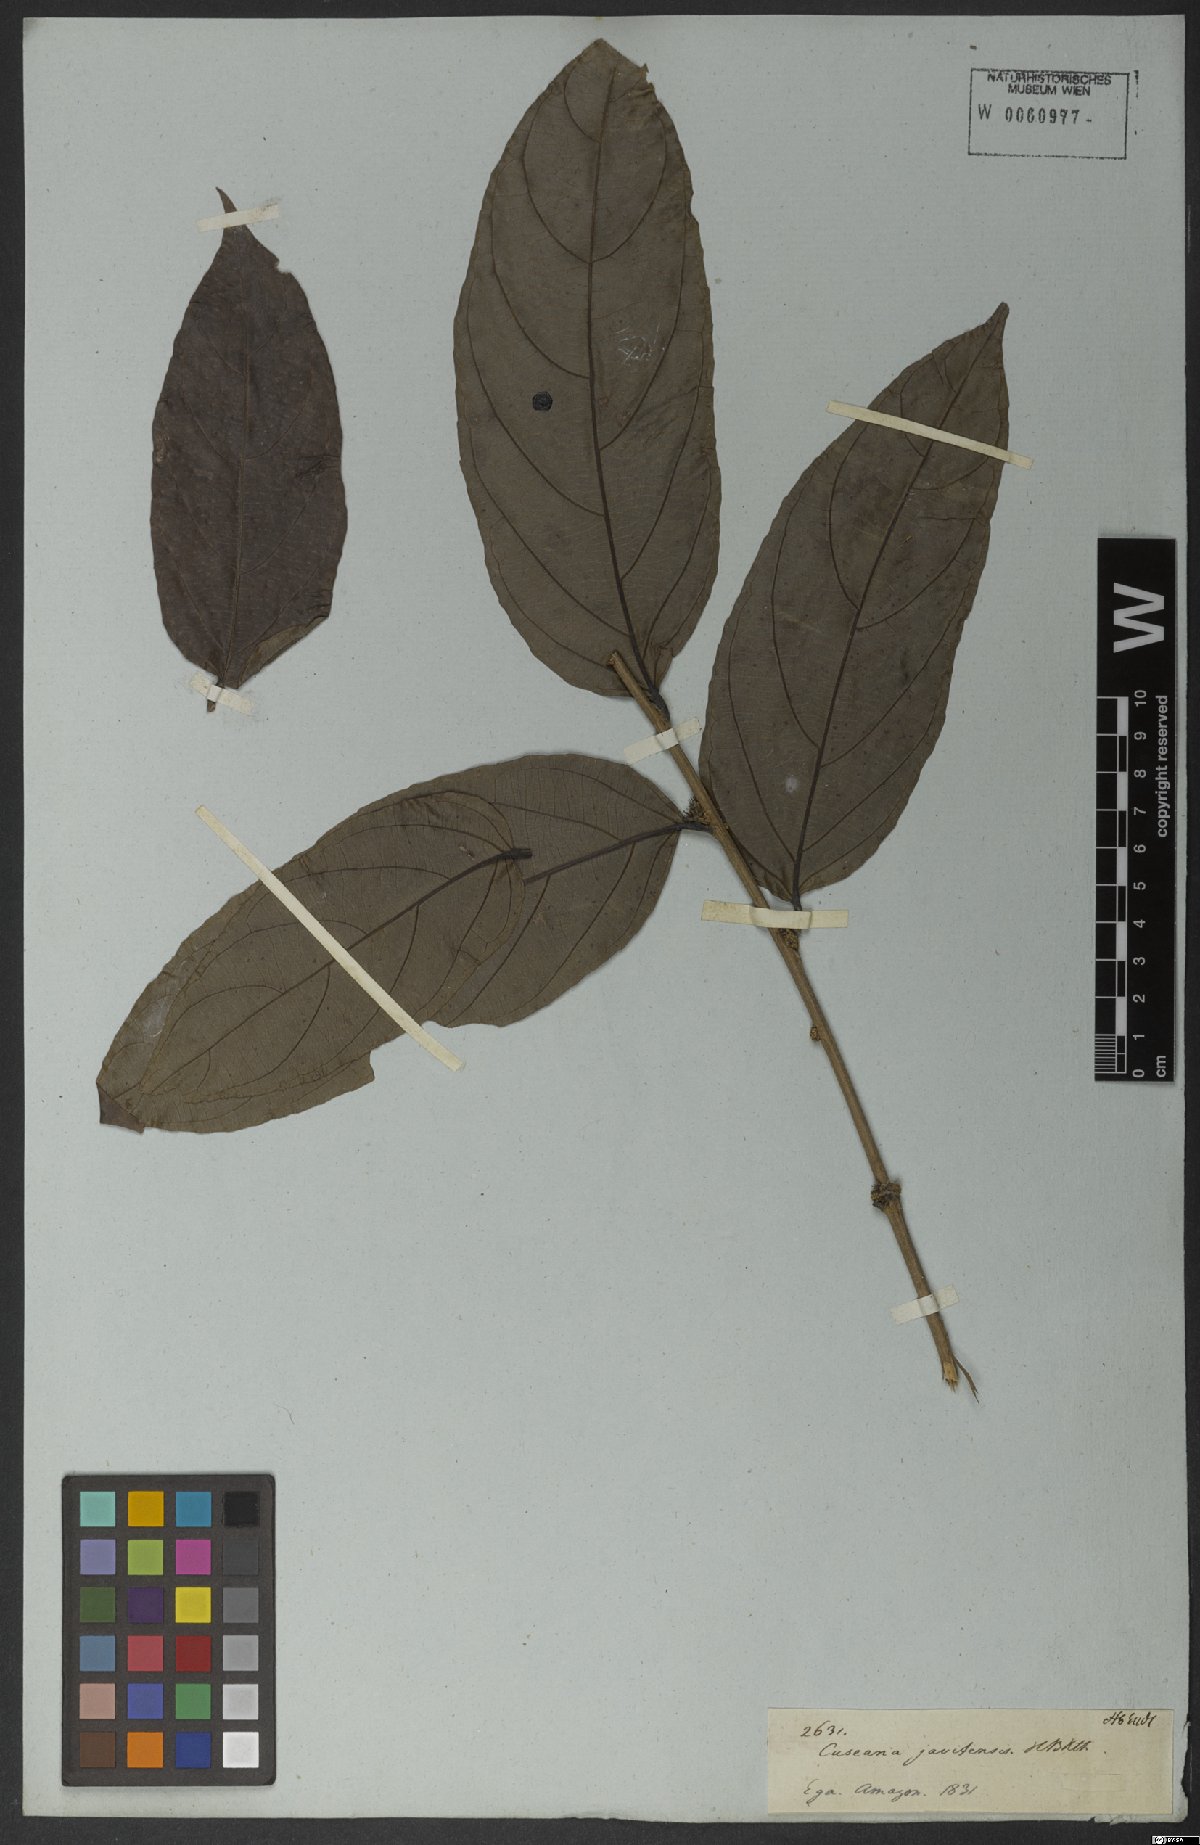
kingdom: Plantae
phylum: Tracheophyta
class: Magnoliopsida
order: Malpighiales
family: Salicaceae
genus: Piparea
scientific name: Piparea multiflora
